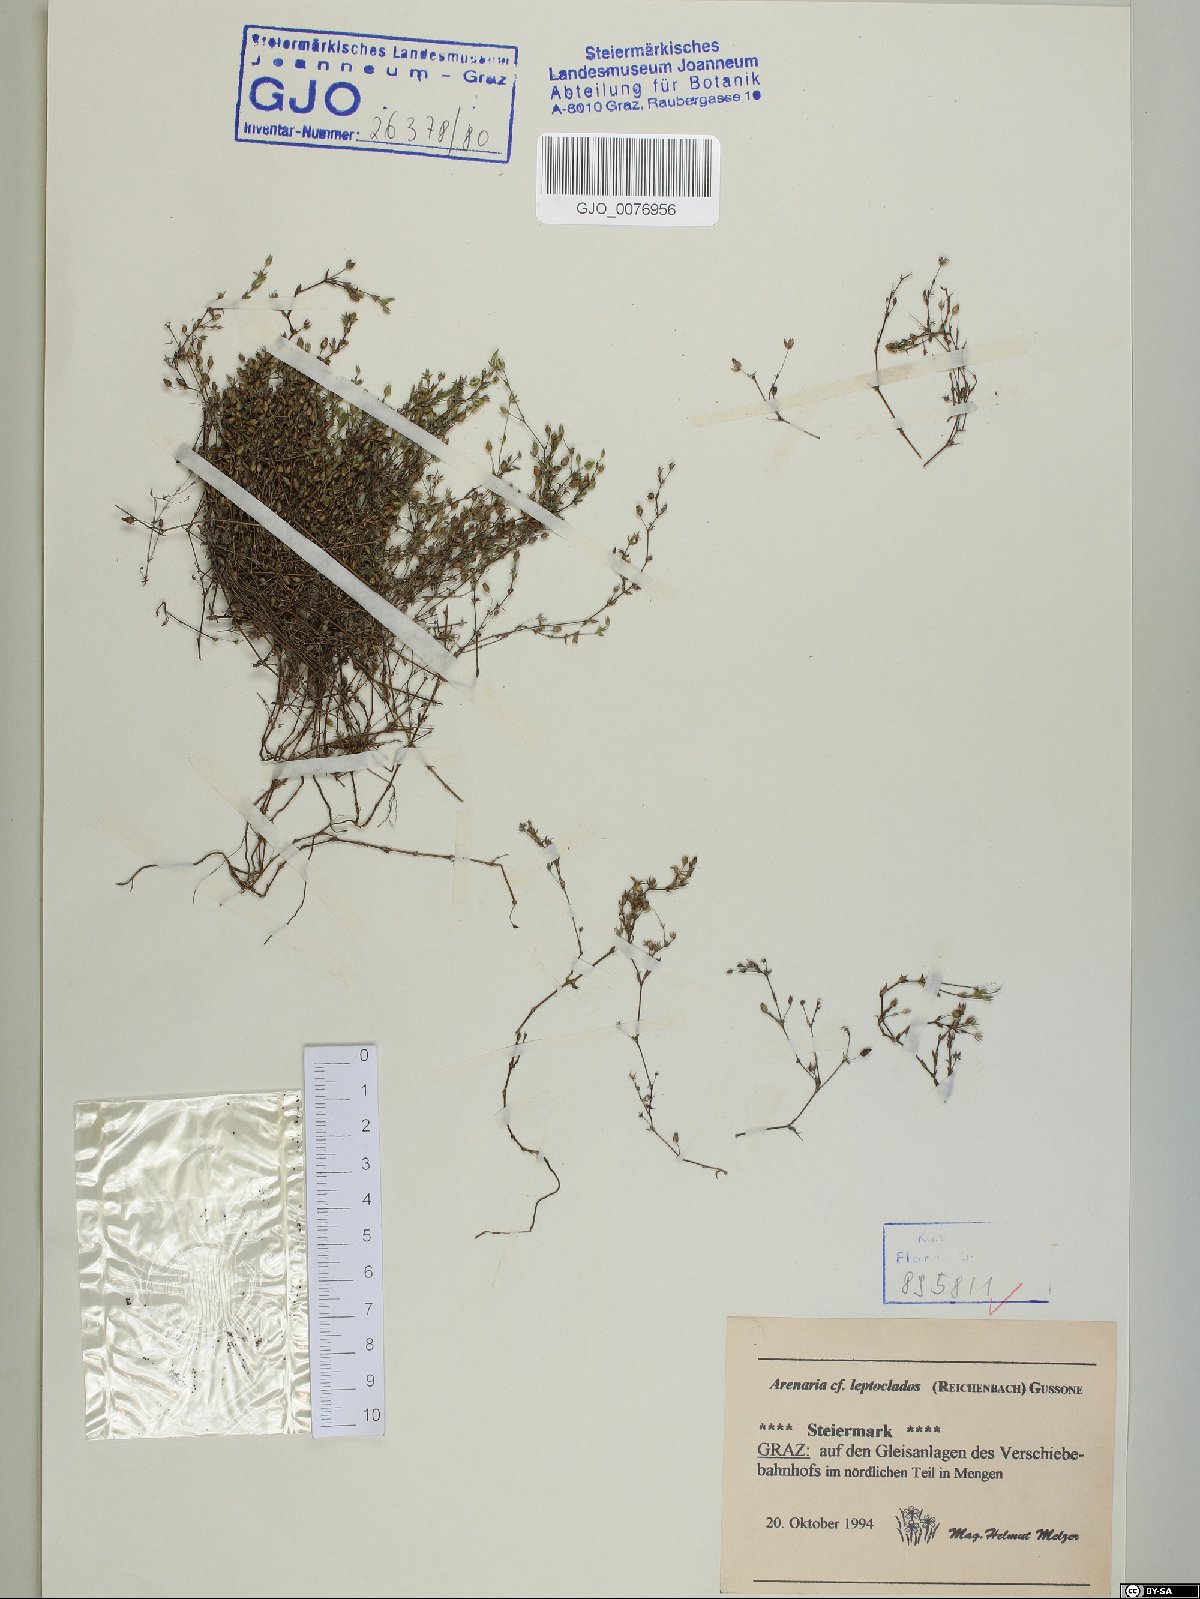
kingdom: Plantae
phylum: Tracheophyta
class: Magnoliopsida
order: Caryophyllales
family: Caryophyllaceae
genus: Arenaria
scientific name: Arenaria leptoclados
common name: Thyme-leaved sandwort
